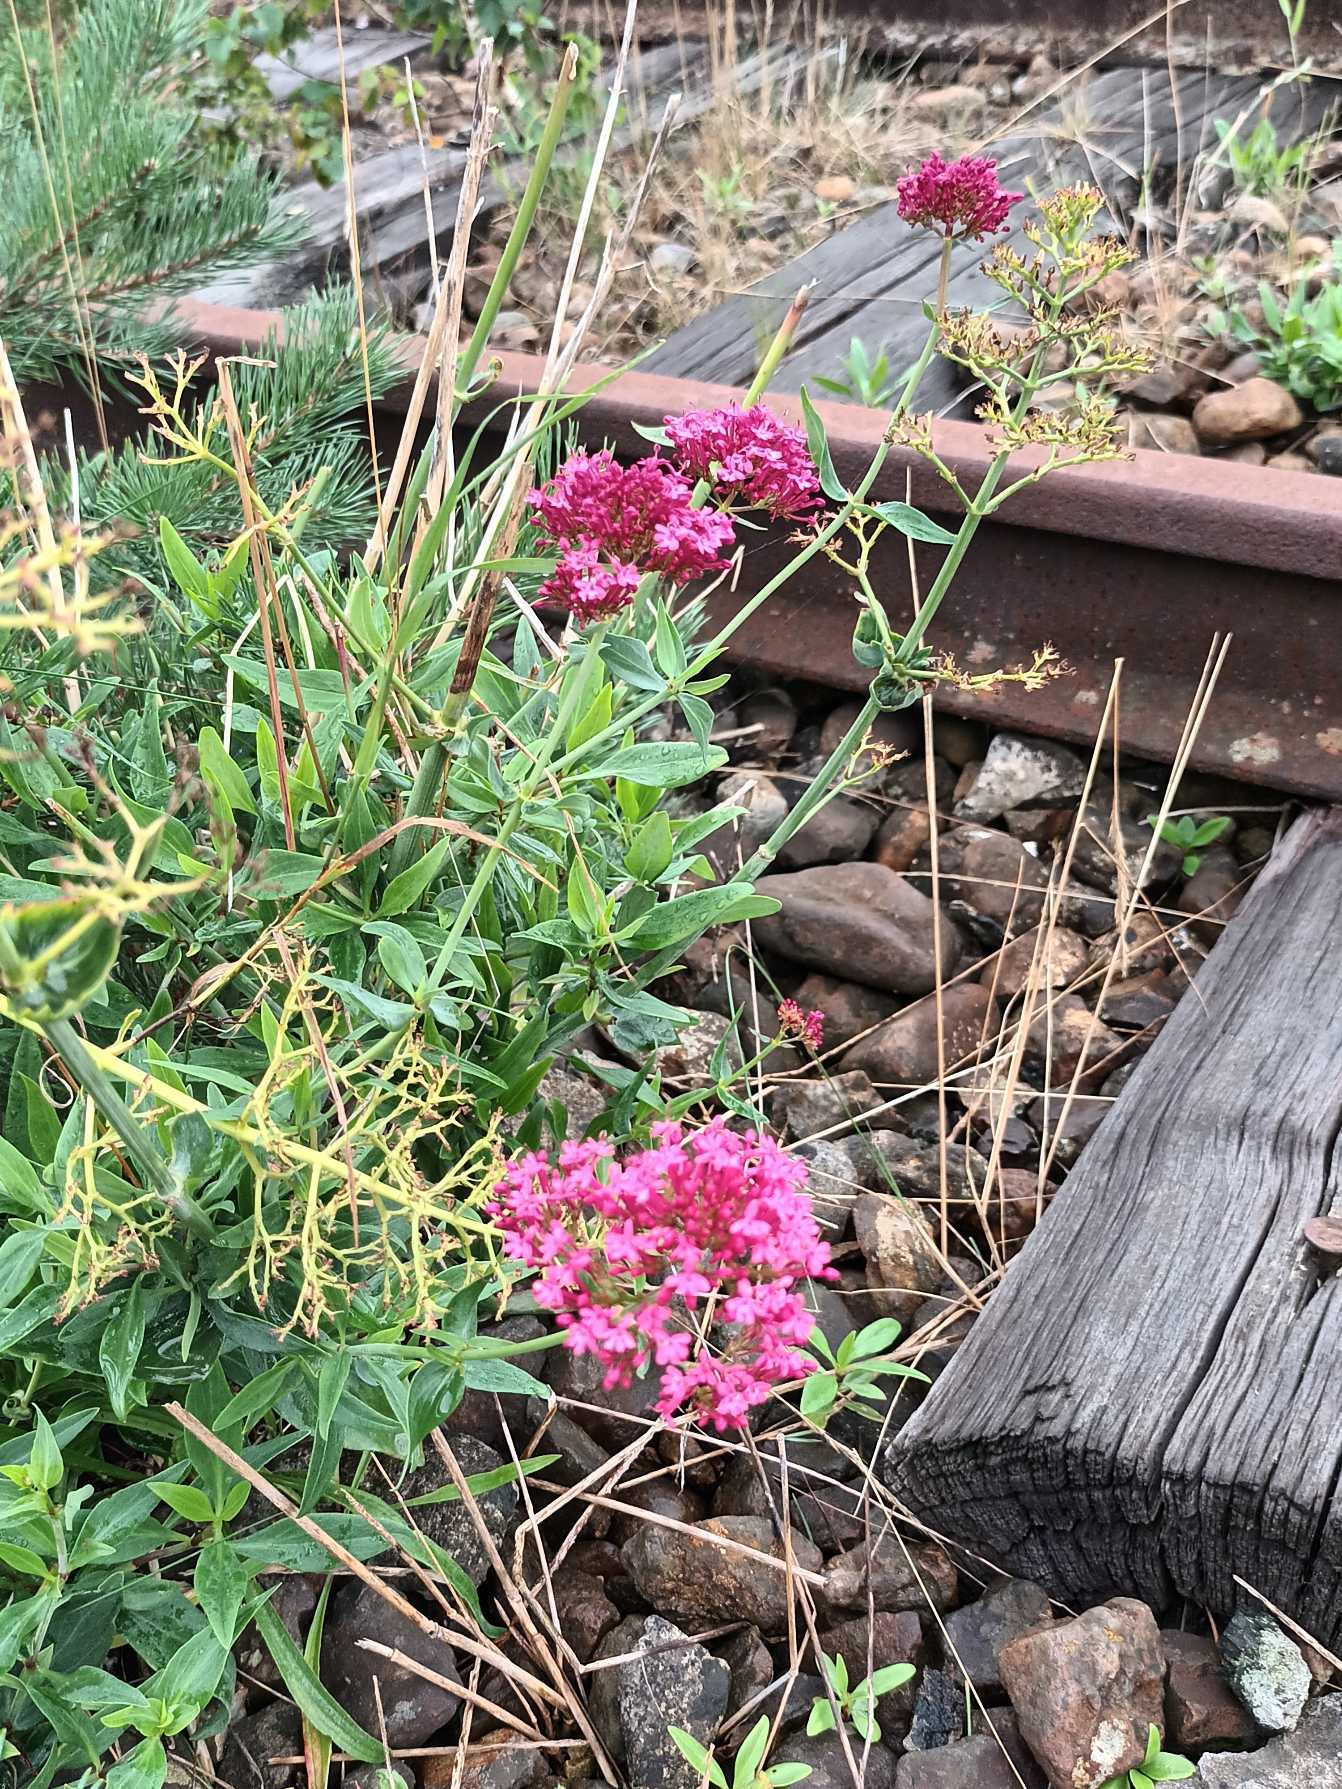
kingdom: Plantae
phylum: Tracheophyta
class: Magnoliopsida
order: Dipsacales
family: Caprifoliaceae
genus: Centranthus
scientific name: Centranthus ruber
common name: Sporebaldrian
